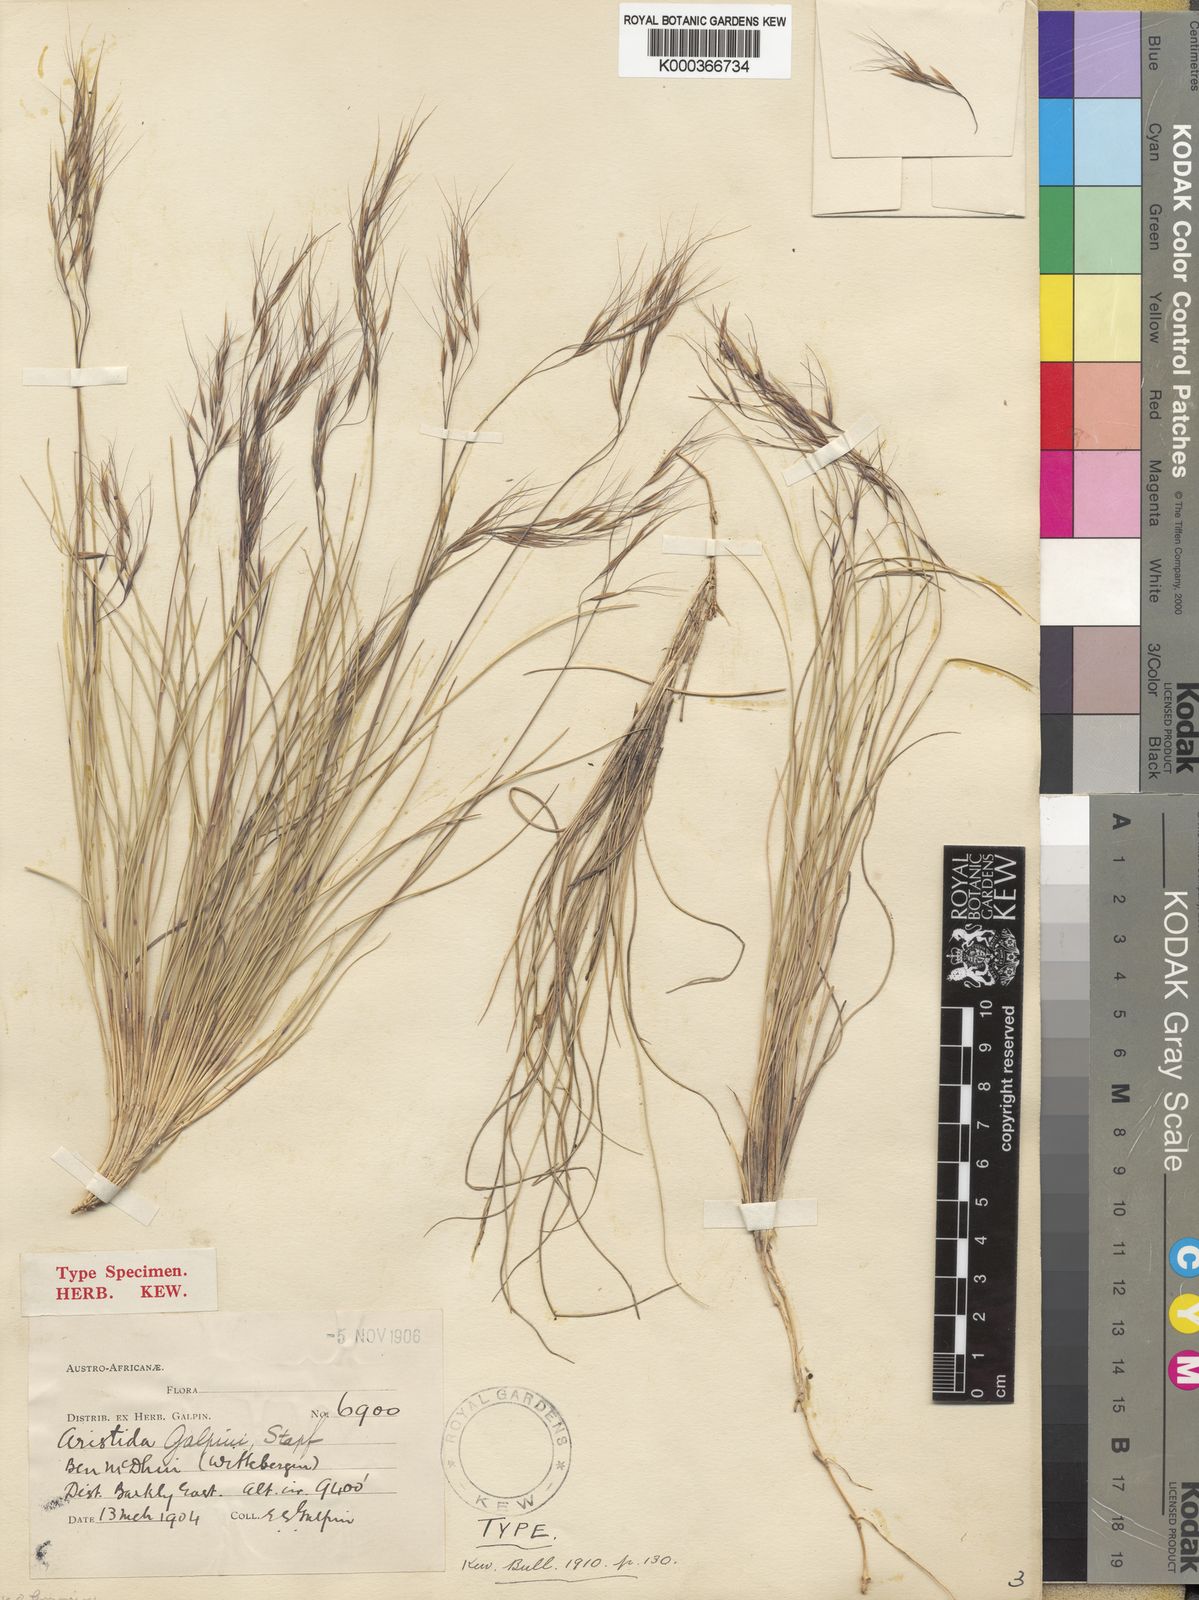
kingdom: Plantae
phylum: Tracheophyta
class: Liliopsida
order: Poales
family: Poaceae
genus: Aristida
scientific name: Aristida junciformis
